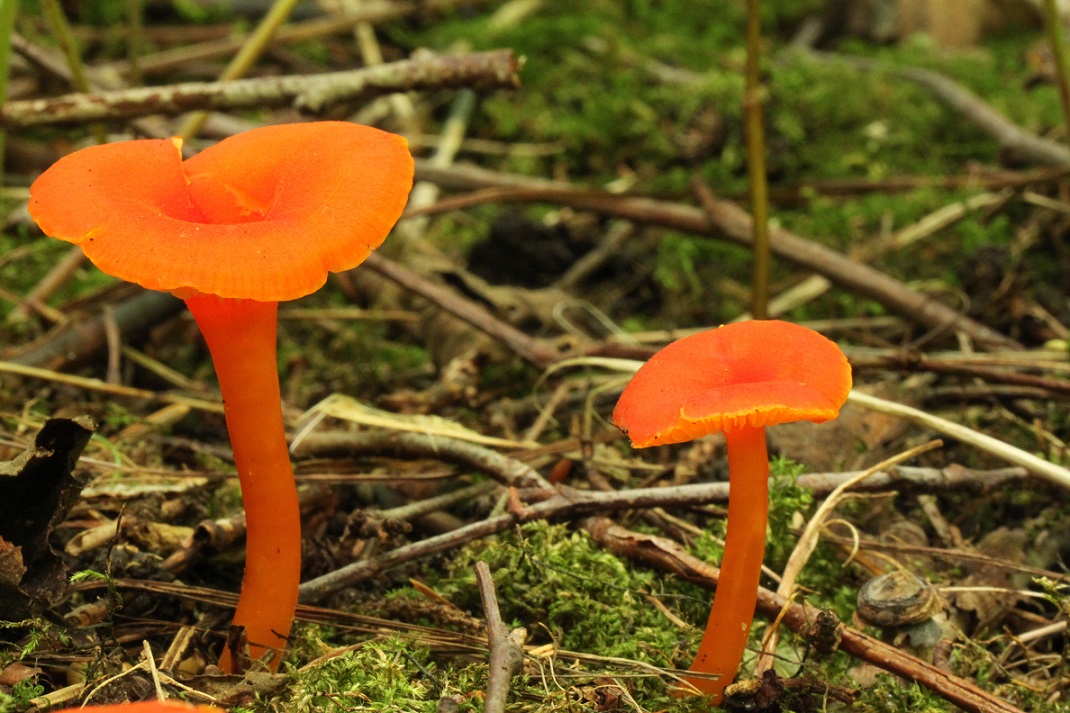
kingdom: Fungi
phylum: Basidiomycota
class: Agaricomycetes
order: Agaricales
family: Hygrophoraceae
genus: Hygrocybe
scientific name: Hygrocybe miniata
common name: mønje-vokshat
